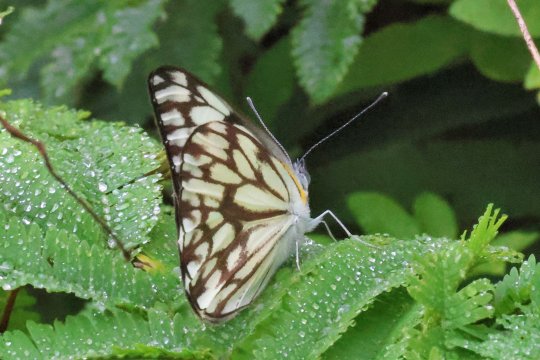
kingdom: Animalia
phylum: Arthropoda
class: Insecta
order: Lepidoptera
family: Pieridae
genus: Belenois
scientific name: Belenois gidica
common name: African Veined White
